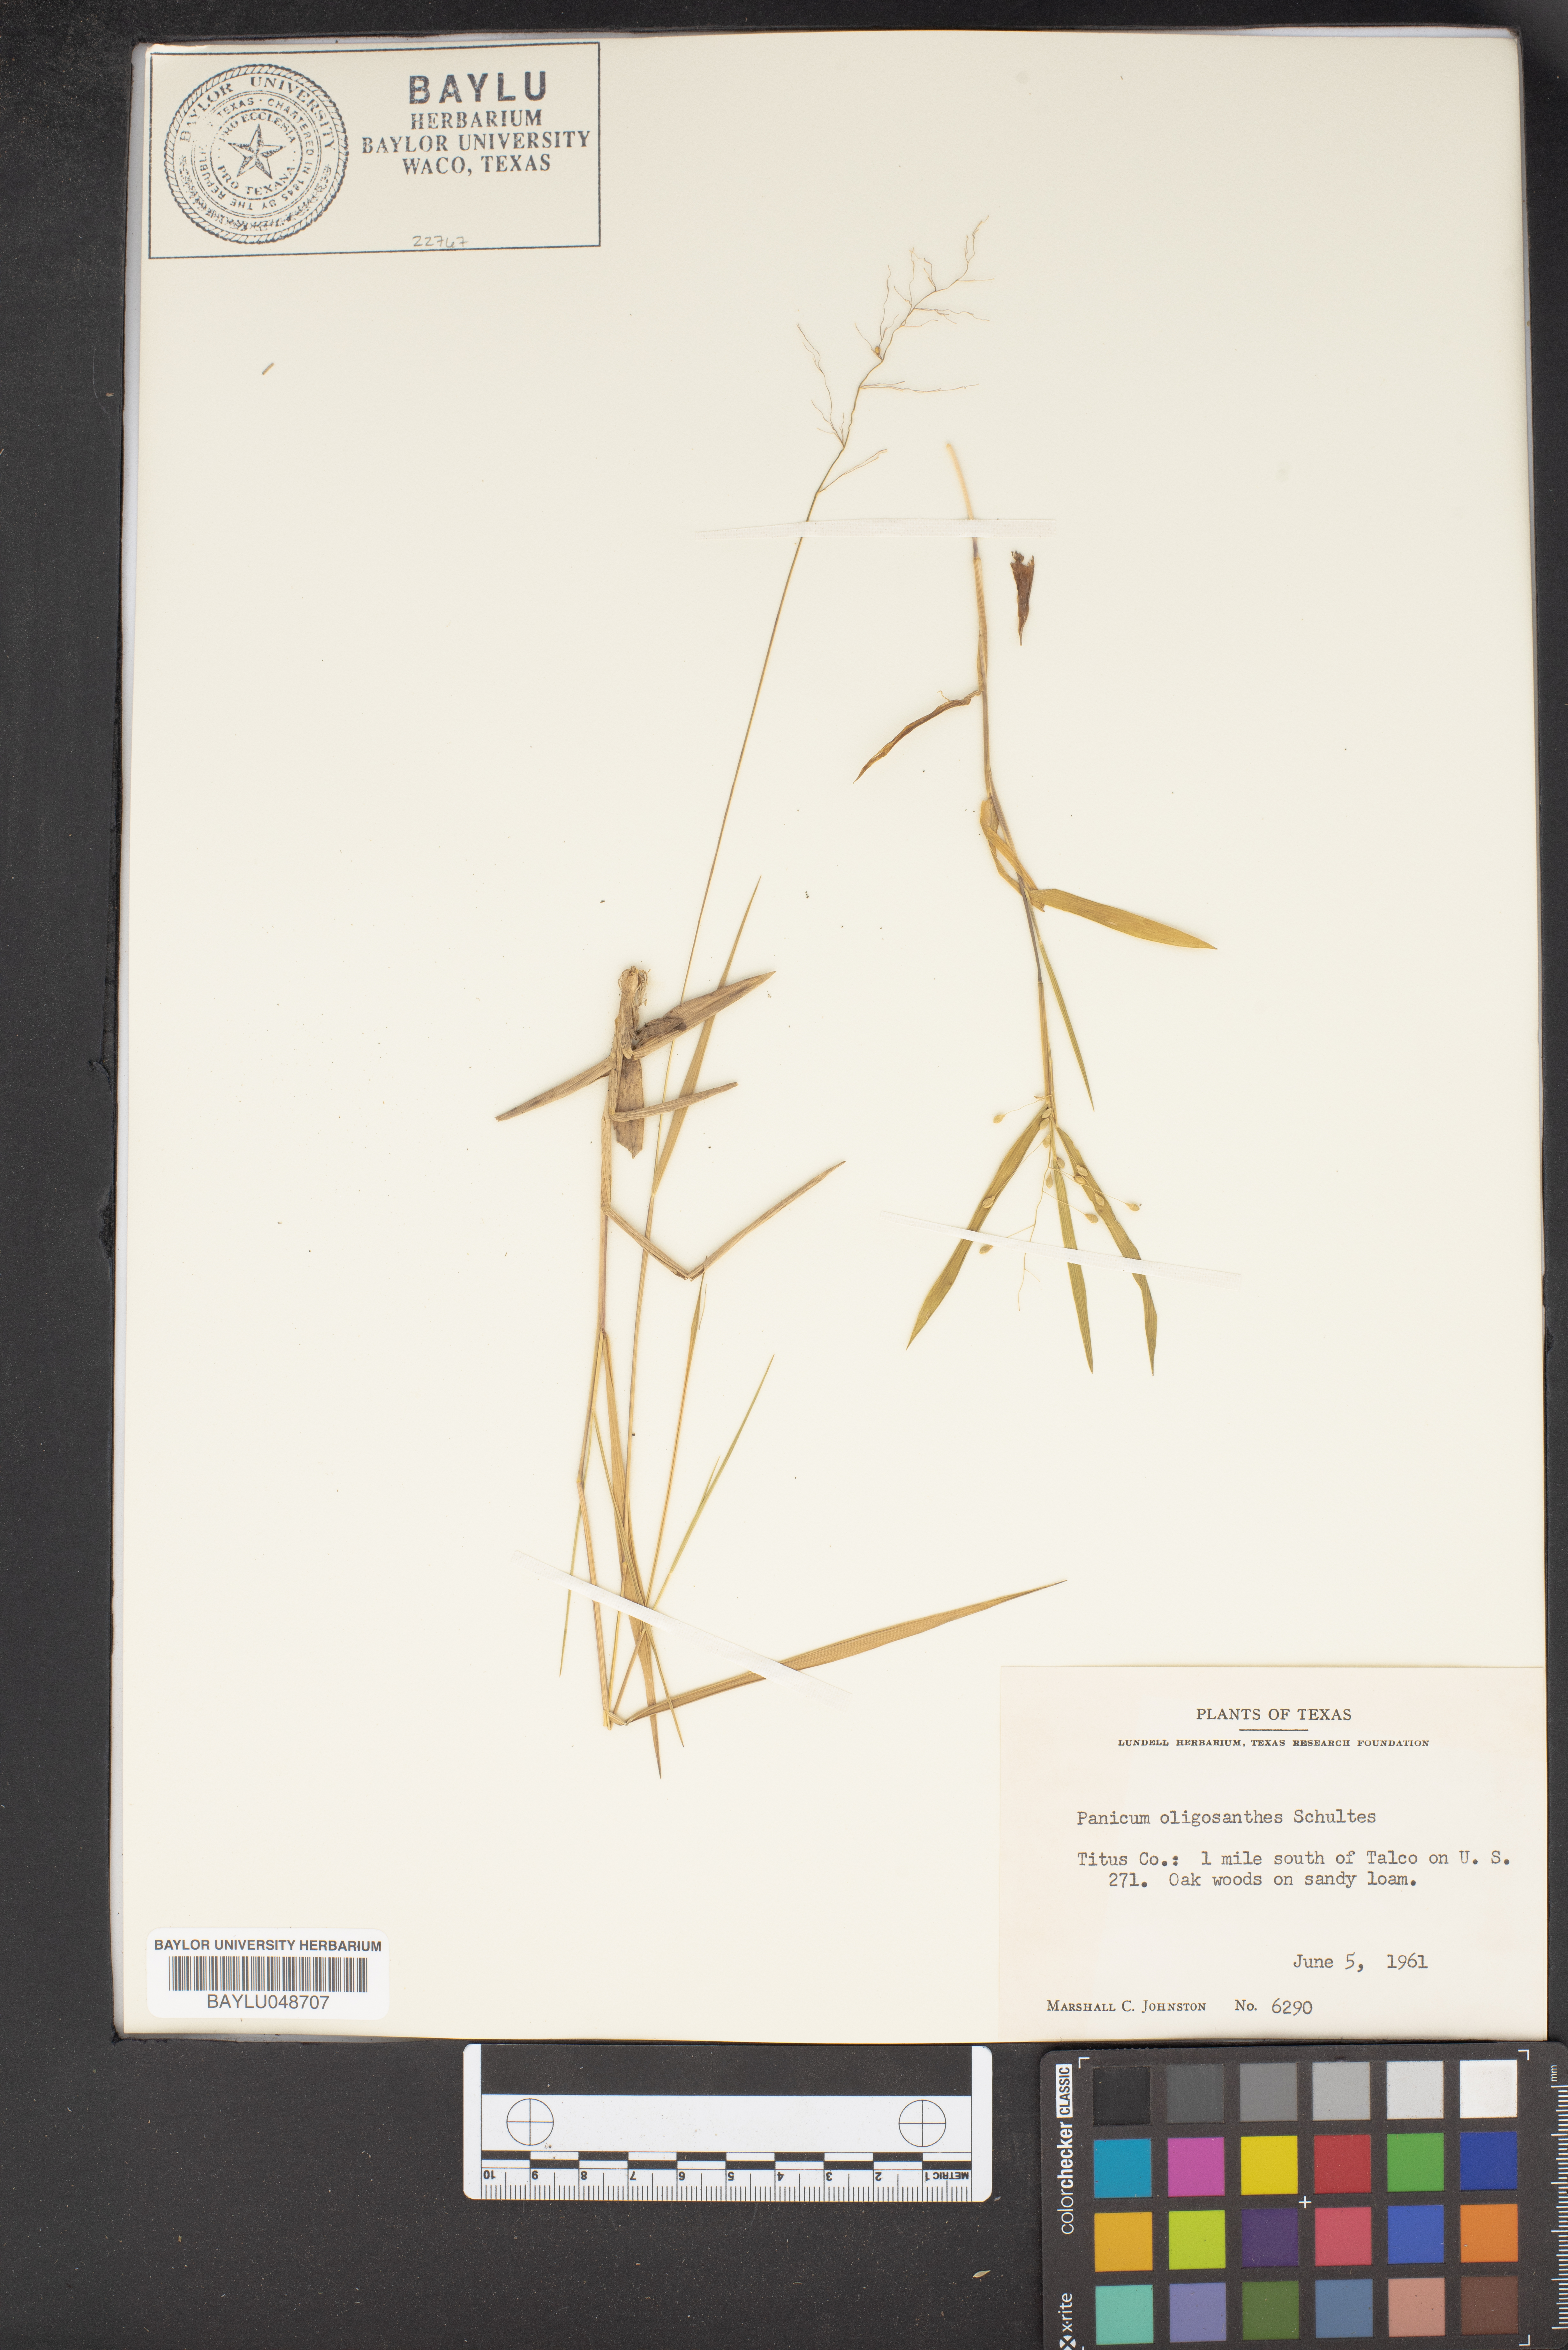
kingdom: Plantae
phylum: Tracheophyta
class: Liliopsida
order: Poales
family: Poaceae
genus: Dichanthelium
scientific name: Dichanthelium oligosanthes
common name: Few-anther obscuregrass
